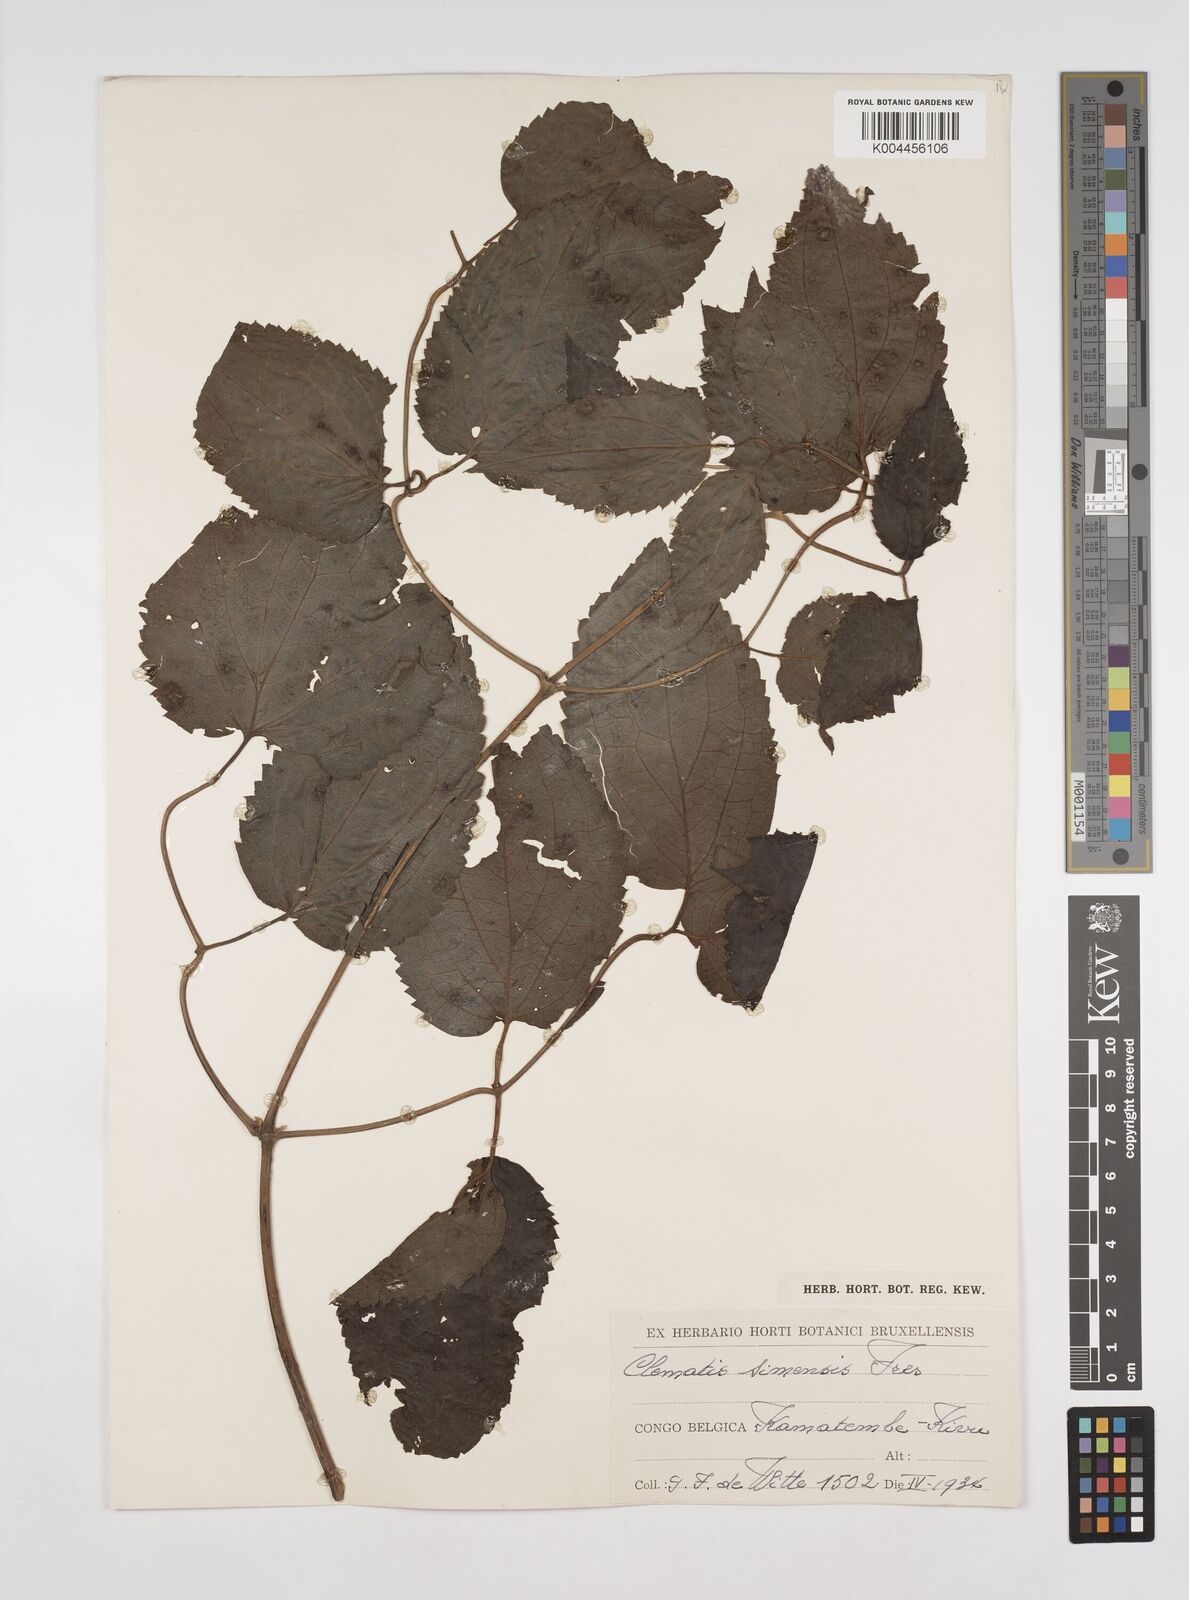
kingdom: Plantae
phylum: Tracheophyta
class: Magnoliopsida
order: Ranunculales
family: Ranunculaceae
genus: Clematis
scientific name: Clematis simensis
